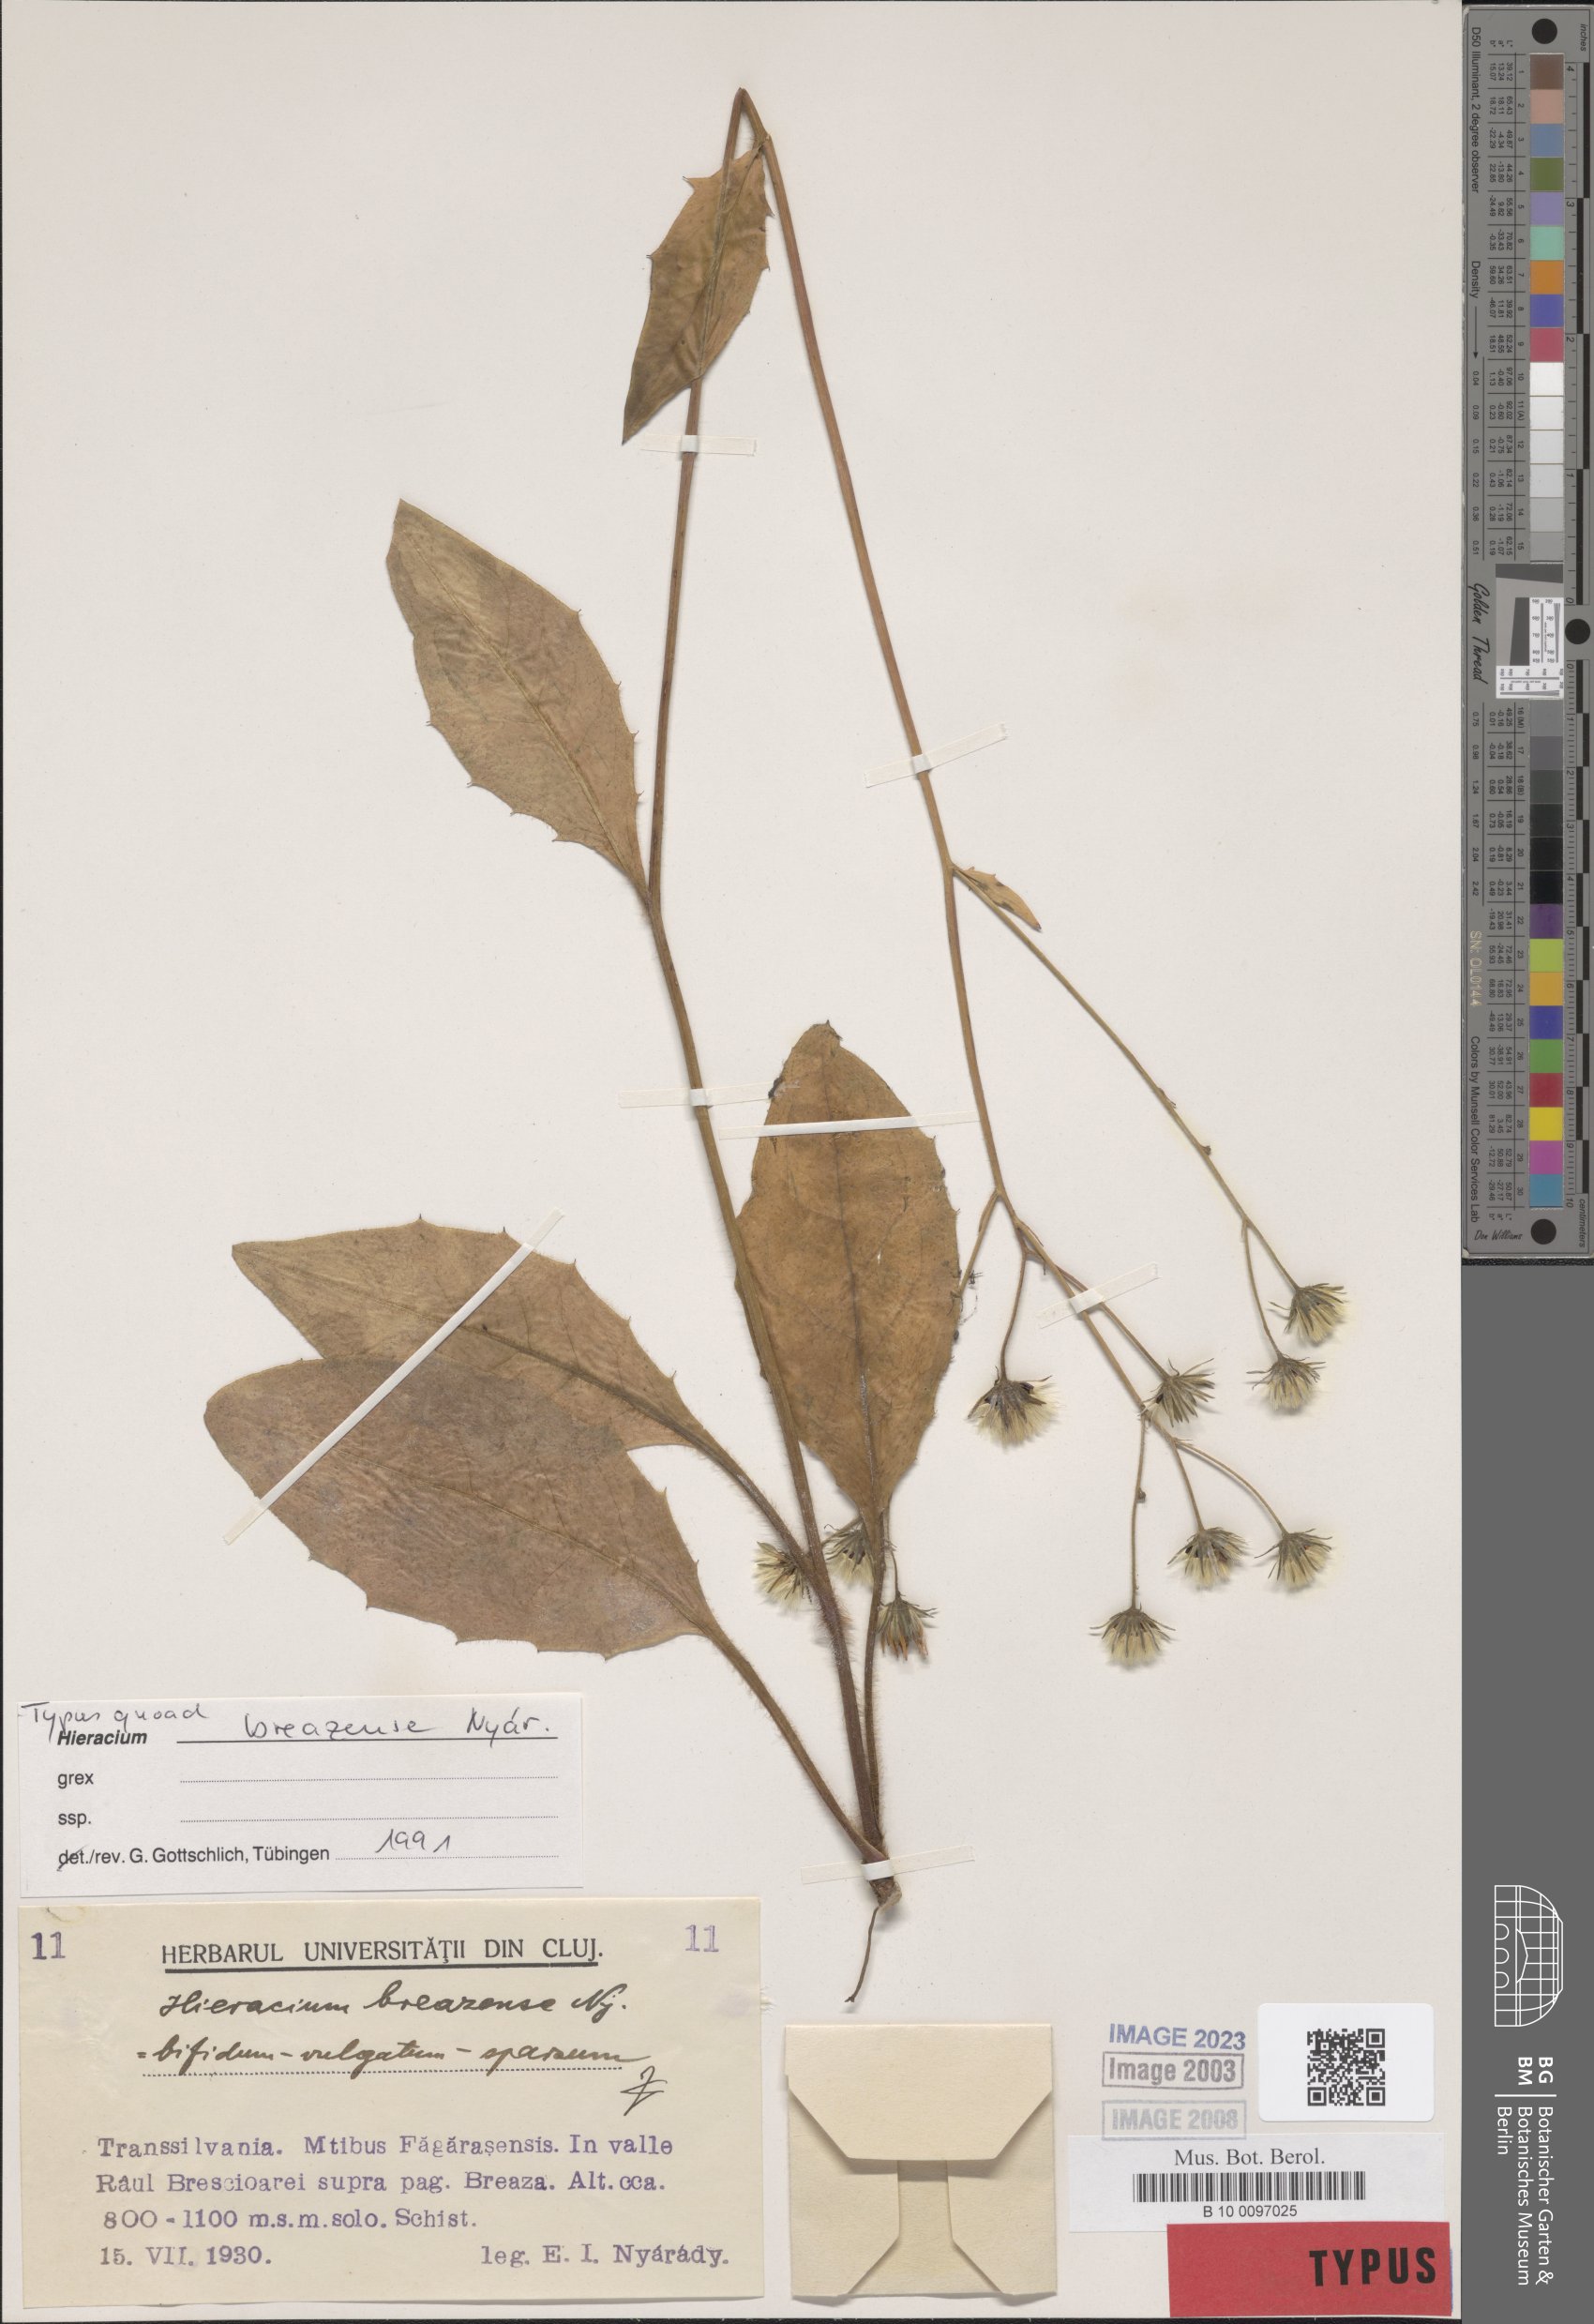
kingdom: Plantae
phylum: Tracheophyta
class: Magnoliopsida
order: Asterales
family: Asteraceae
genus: Hieracium
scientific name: Hieracium breazense
